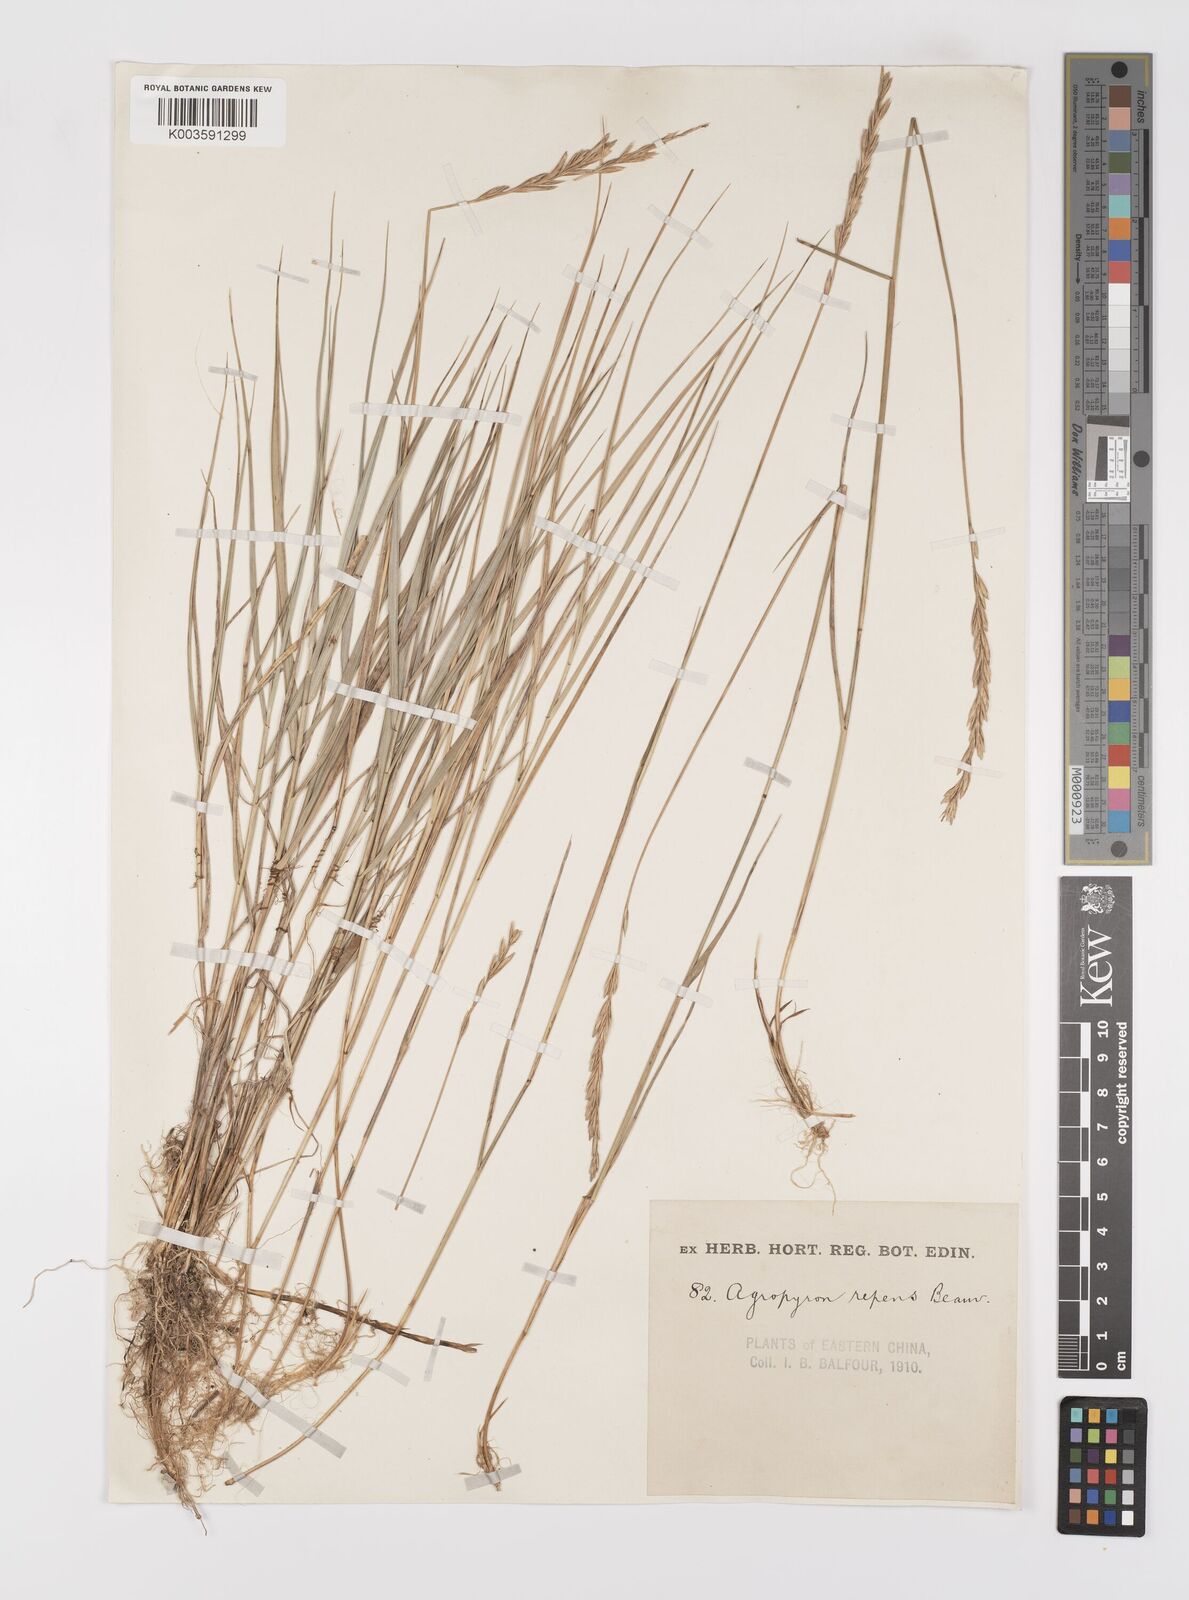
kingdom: Plantae
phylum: Tracheophyta
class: Liliopsida
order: Poales
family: Poaceae
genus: Leymus
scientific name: Leymus
